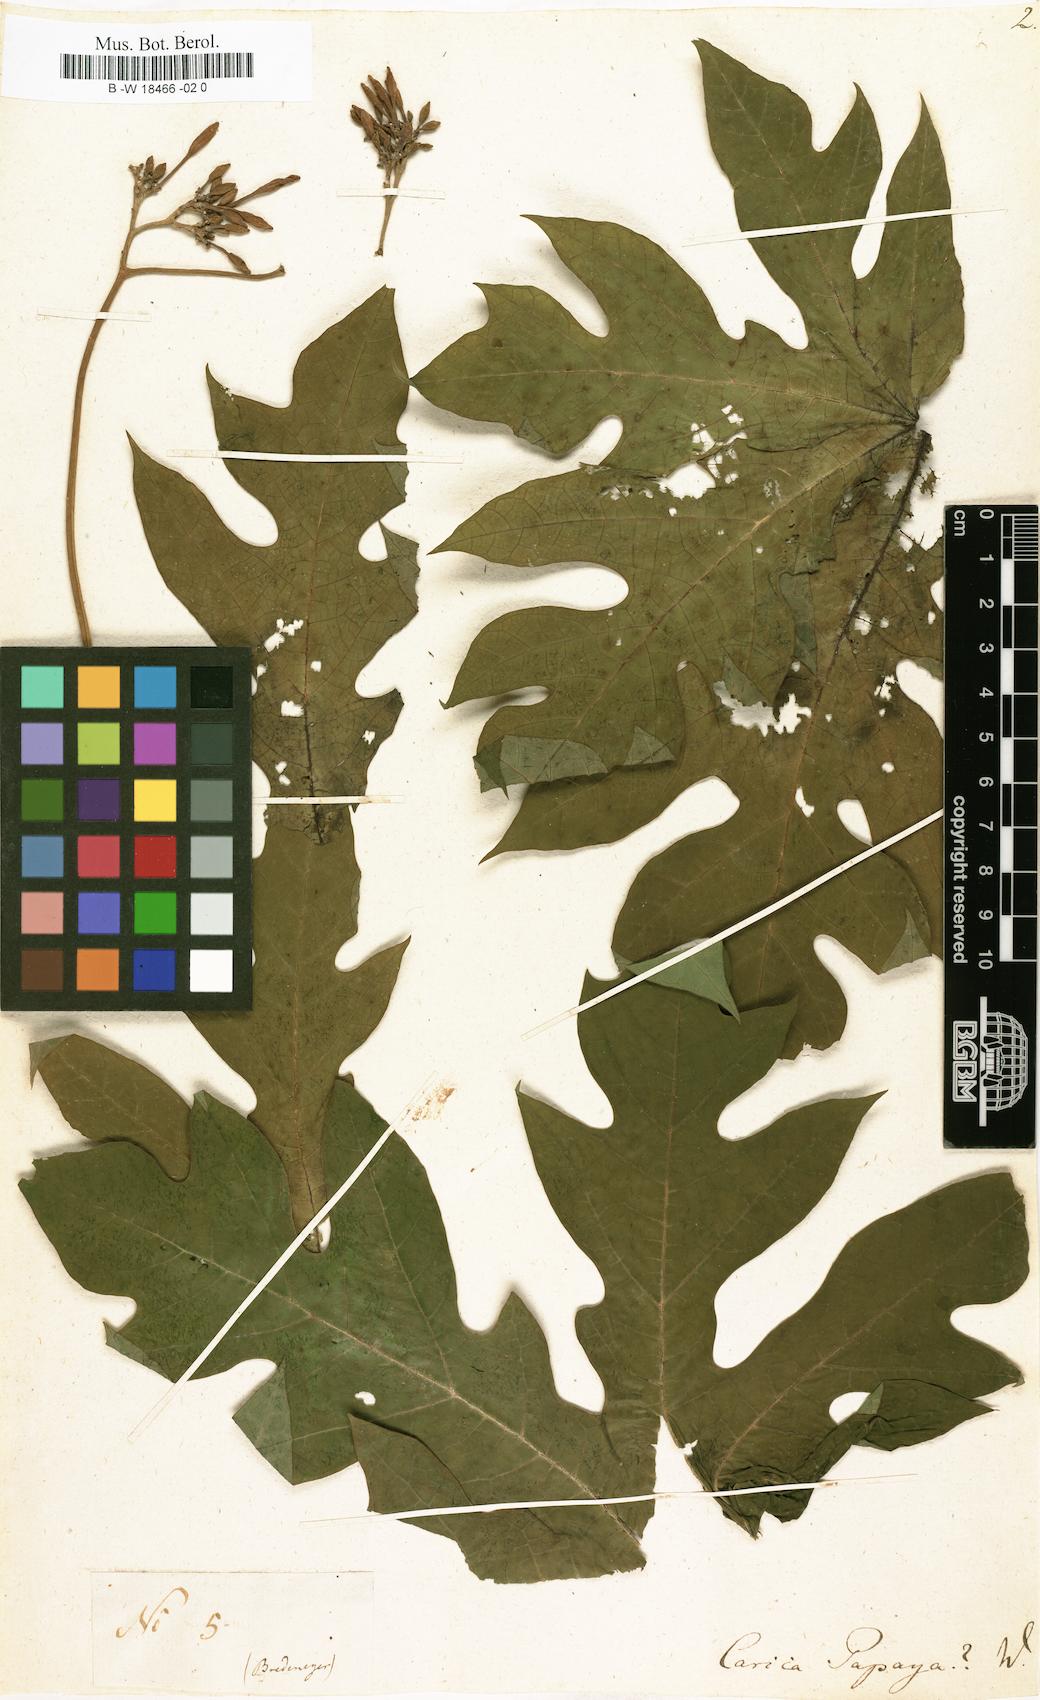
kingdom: Plantae
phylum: Tracheophyta
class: Magnoliopsida
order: Brassicales
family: Caricaceae
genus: Carica
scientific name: Carica papaya
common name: Papaya
